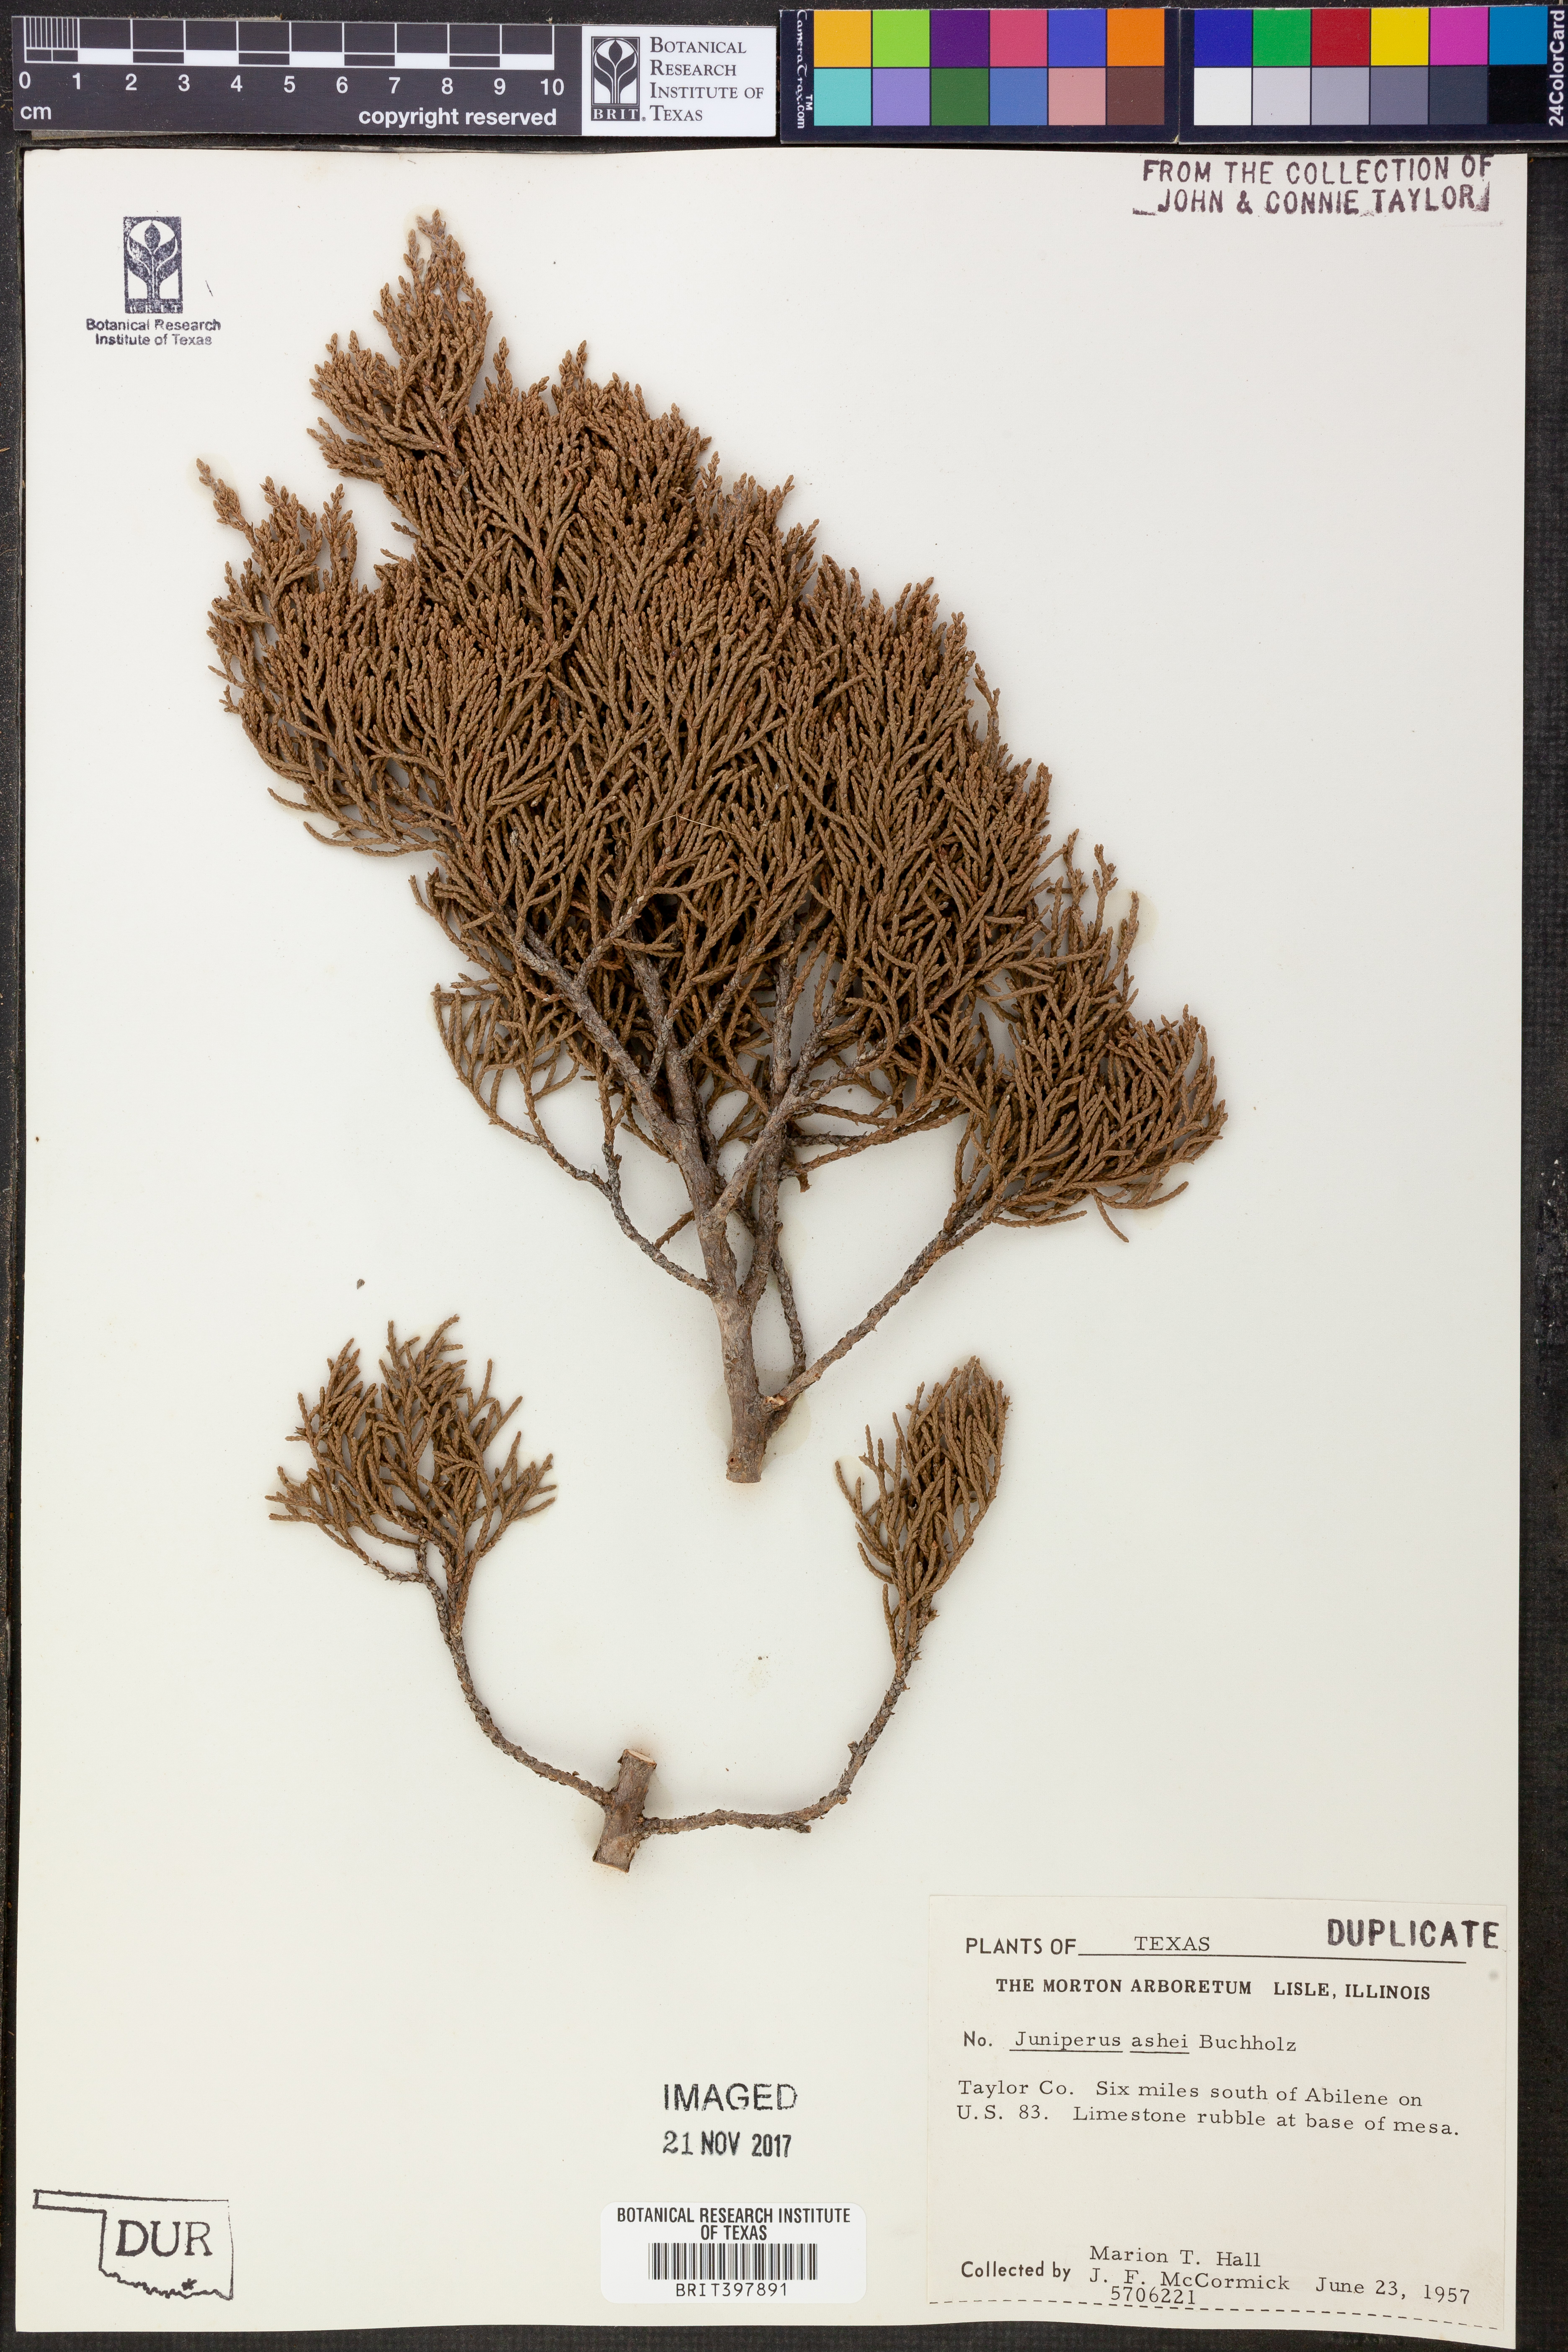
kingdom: Plantae
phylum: Tracheophyta
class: Pinopsida
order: Pinales
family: Cupressaceae
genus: Juniperus
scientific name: Juniperus ashei
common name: Mexican juniper
